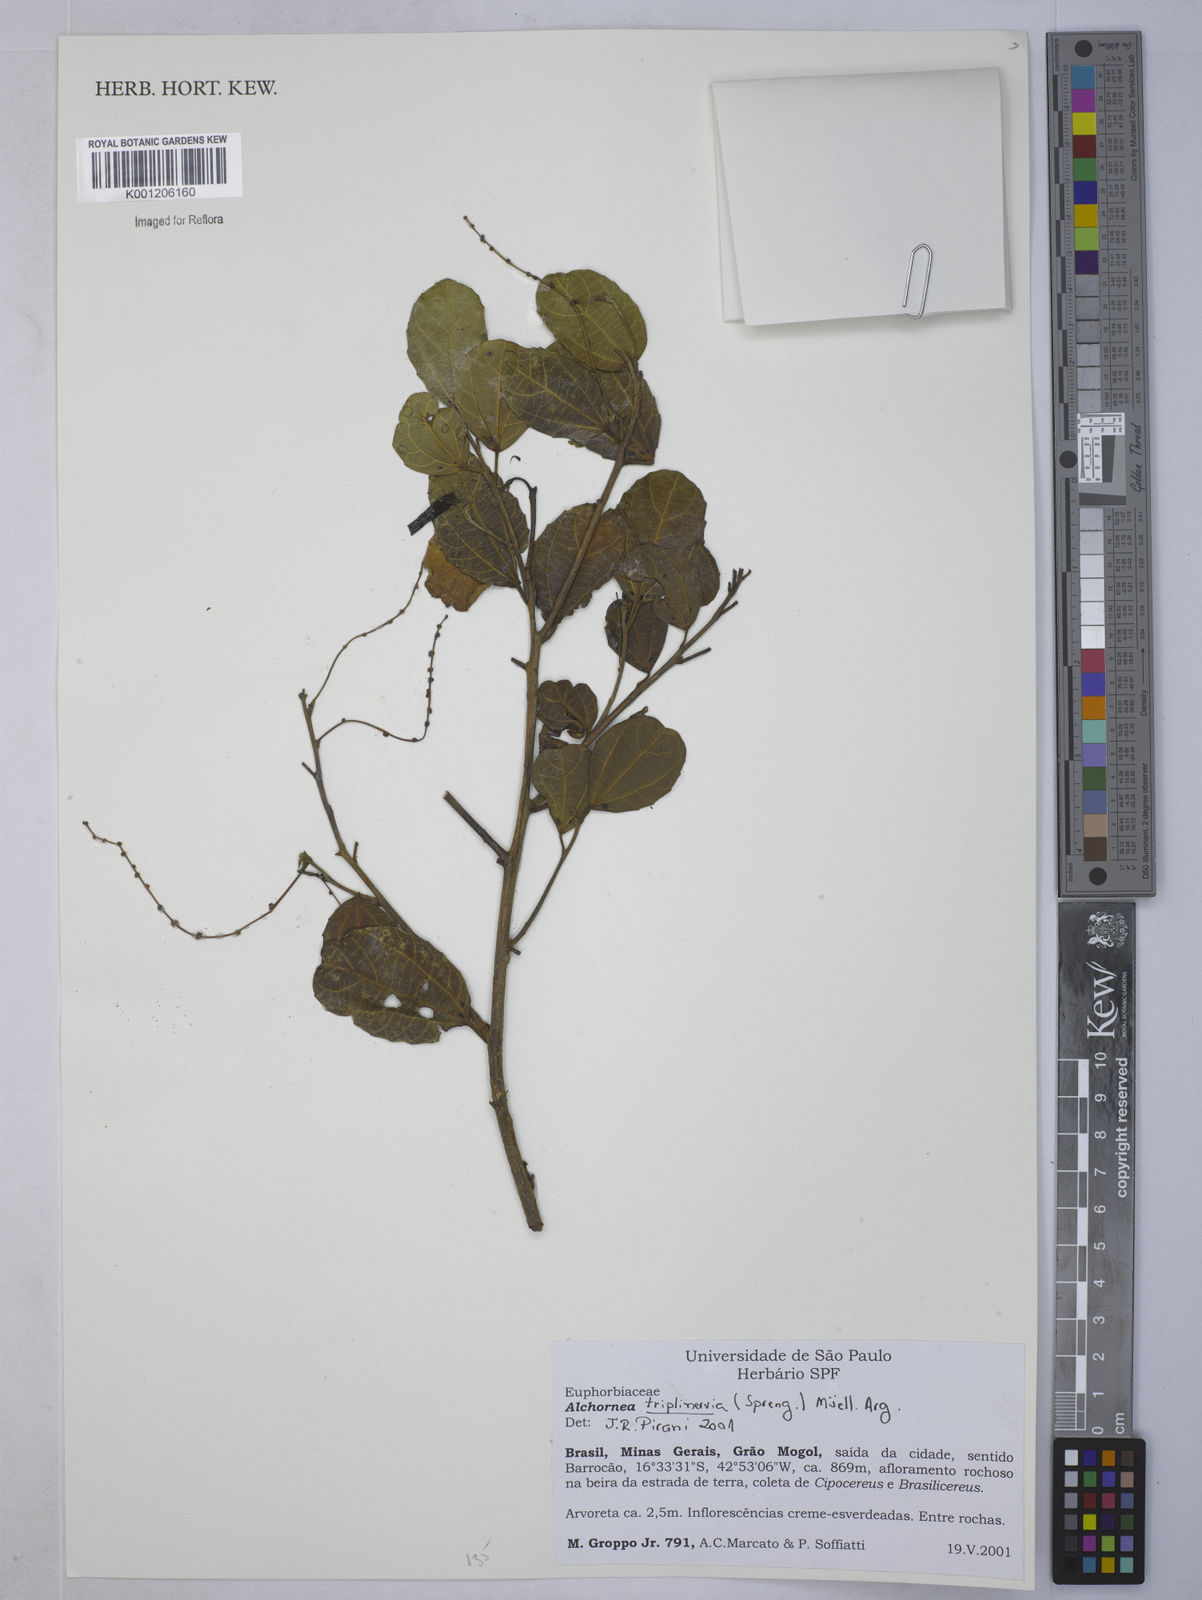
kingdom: Plantae
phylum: Tracheophyta
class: Magnoliopsida
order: Malpighiales
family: Euphorbiaceae
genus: Alchornea
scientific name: Alchornea
